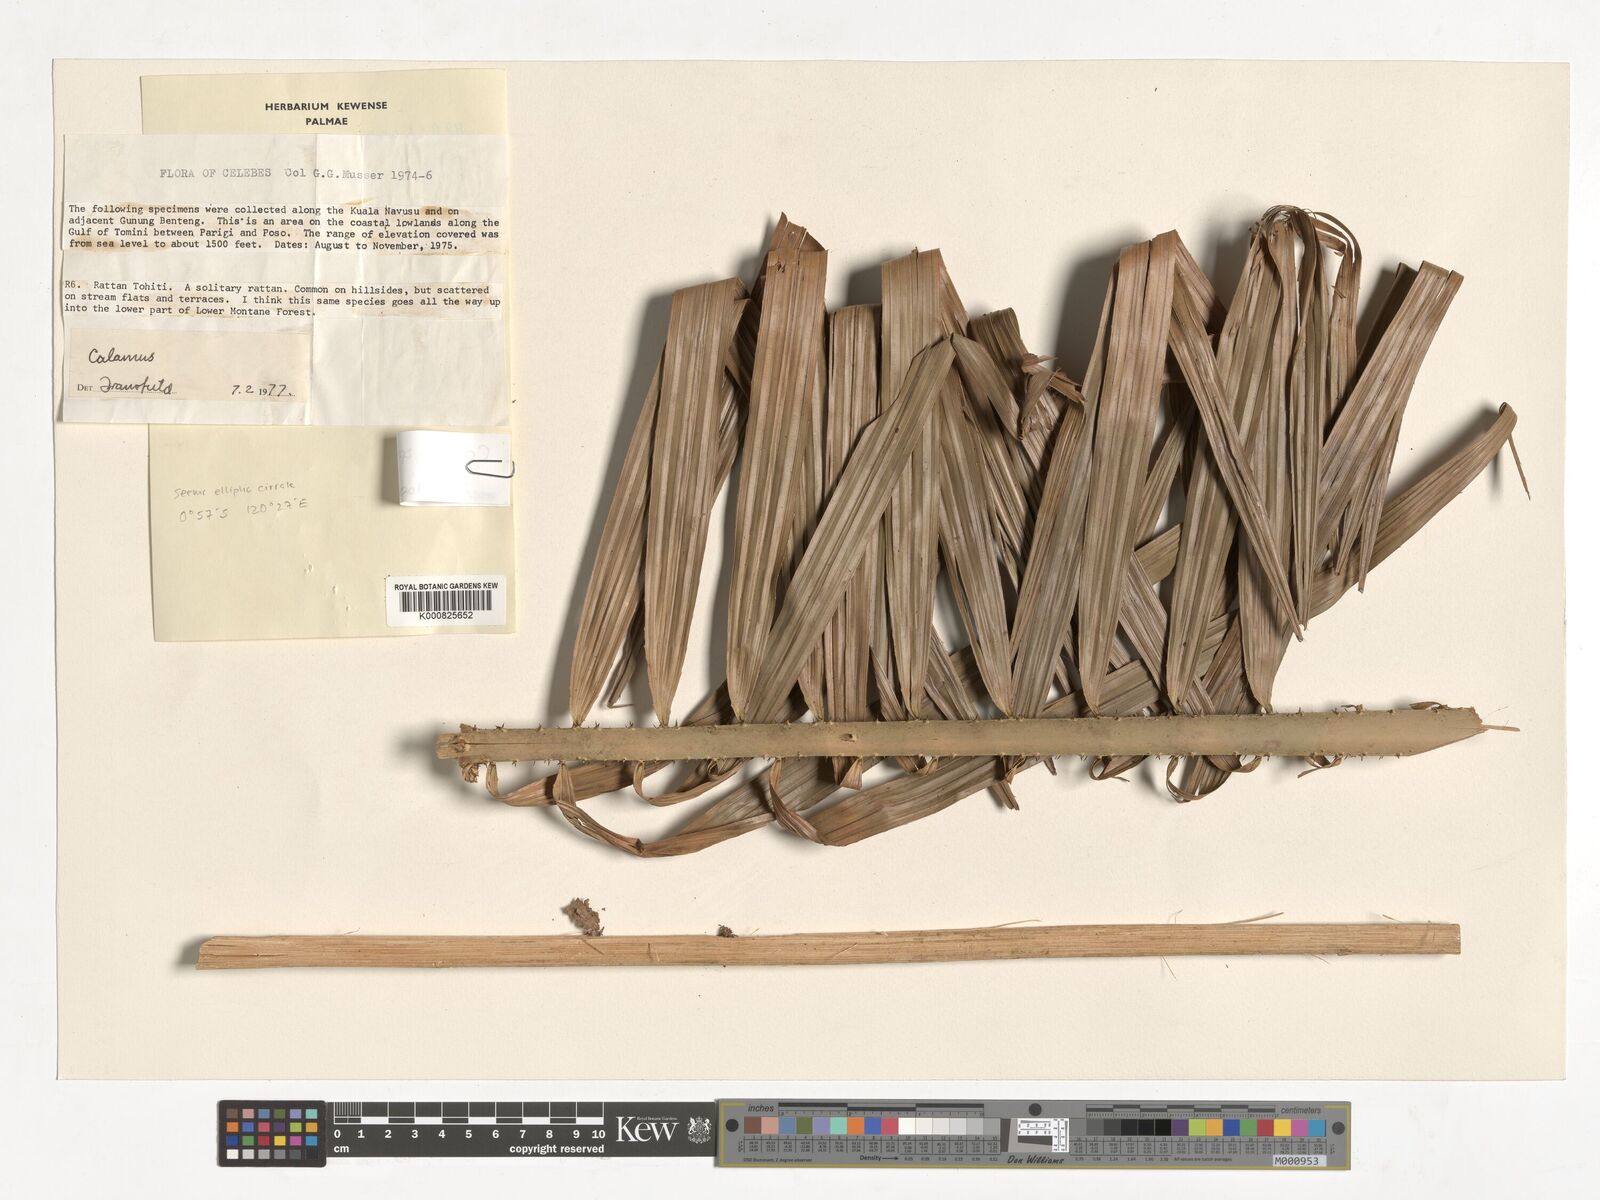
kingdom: Plantae
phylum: Tracheophyta
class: Liliopsida
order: Arecales
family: Arecaceae
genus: Calamus
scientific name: Calamus
